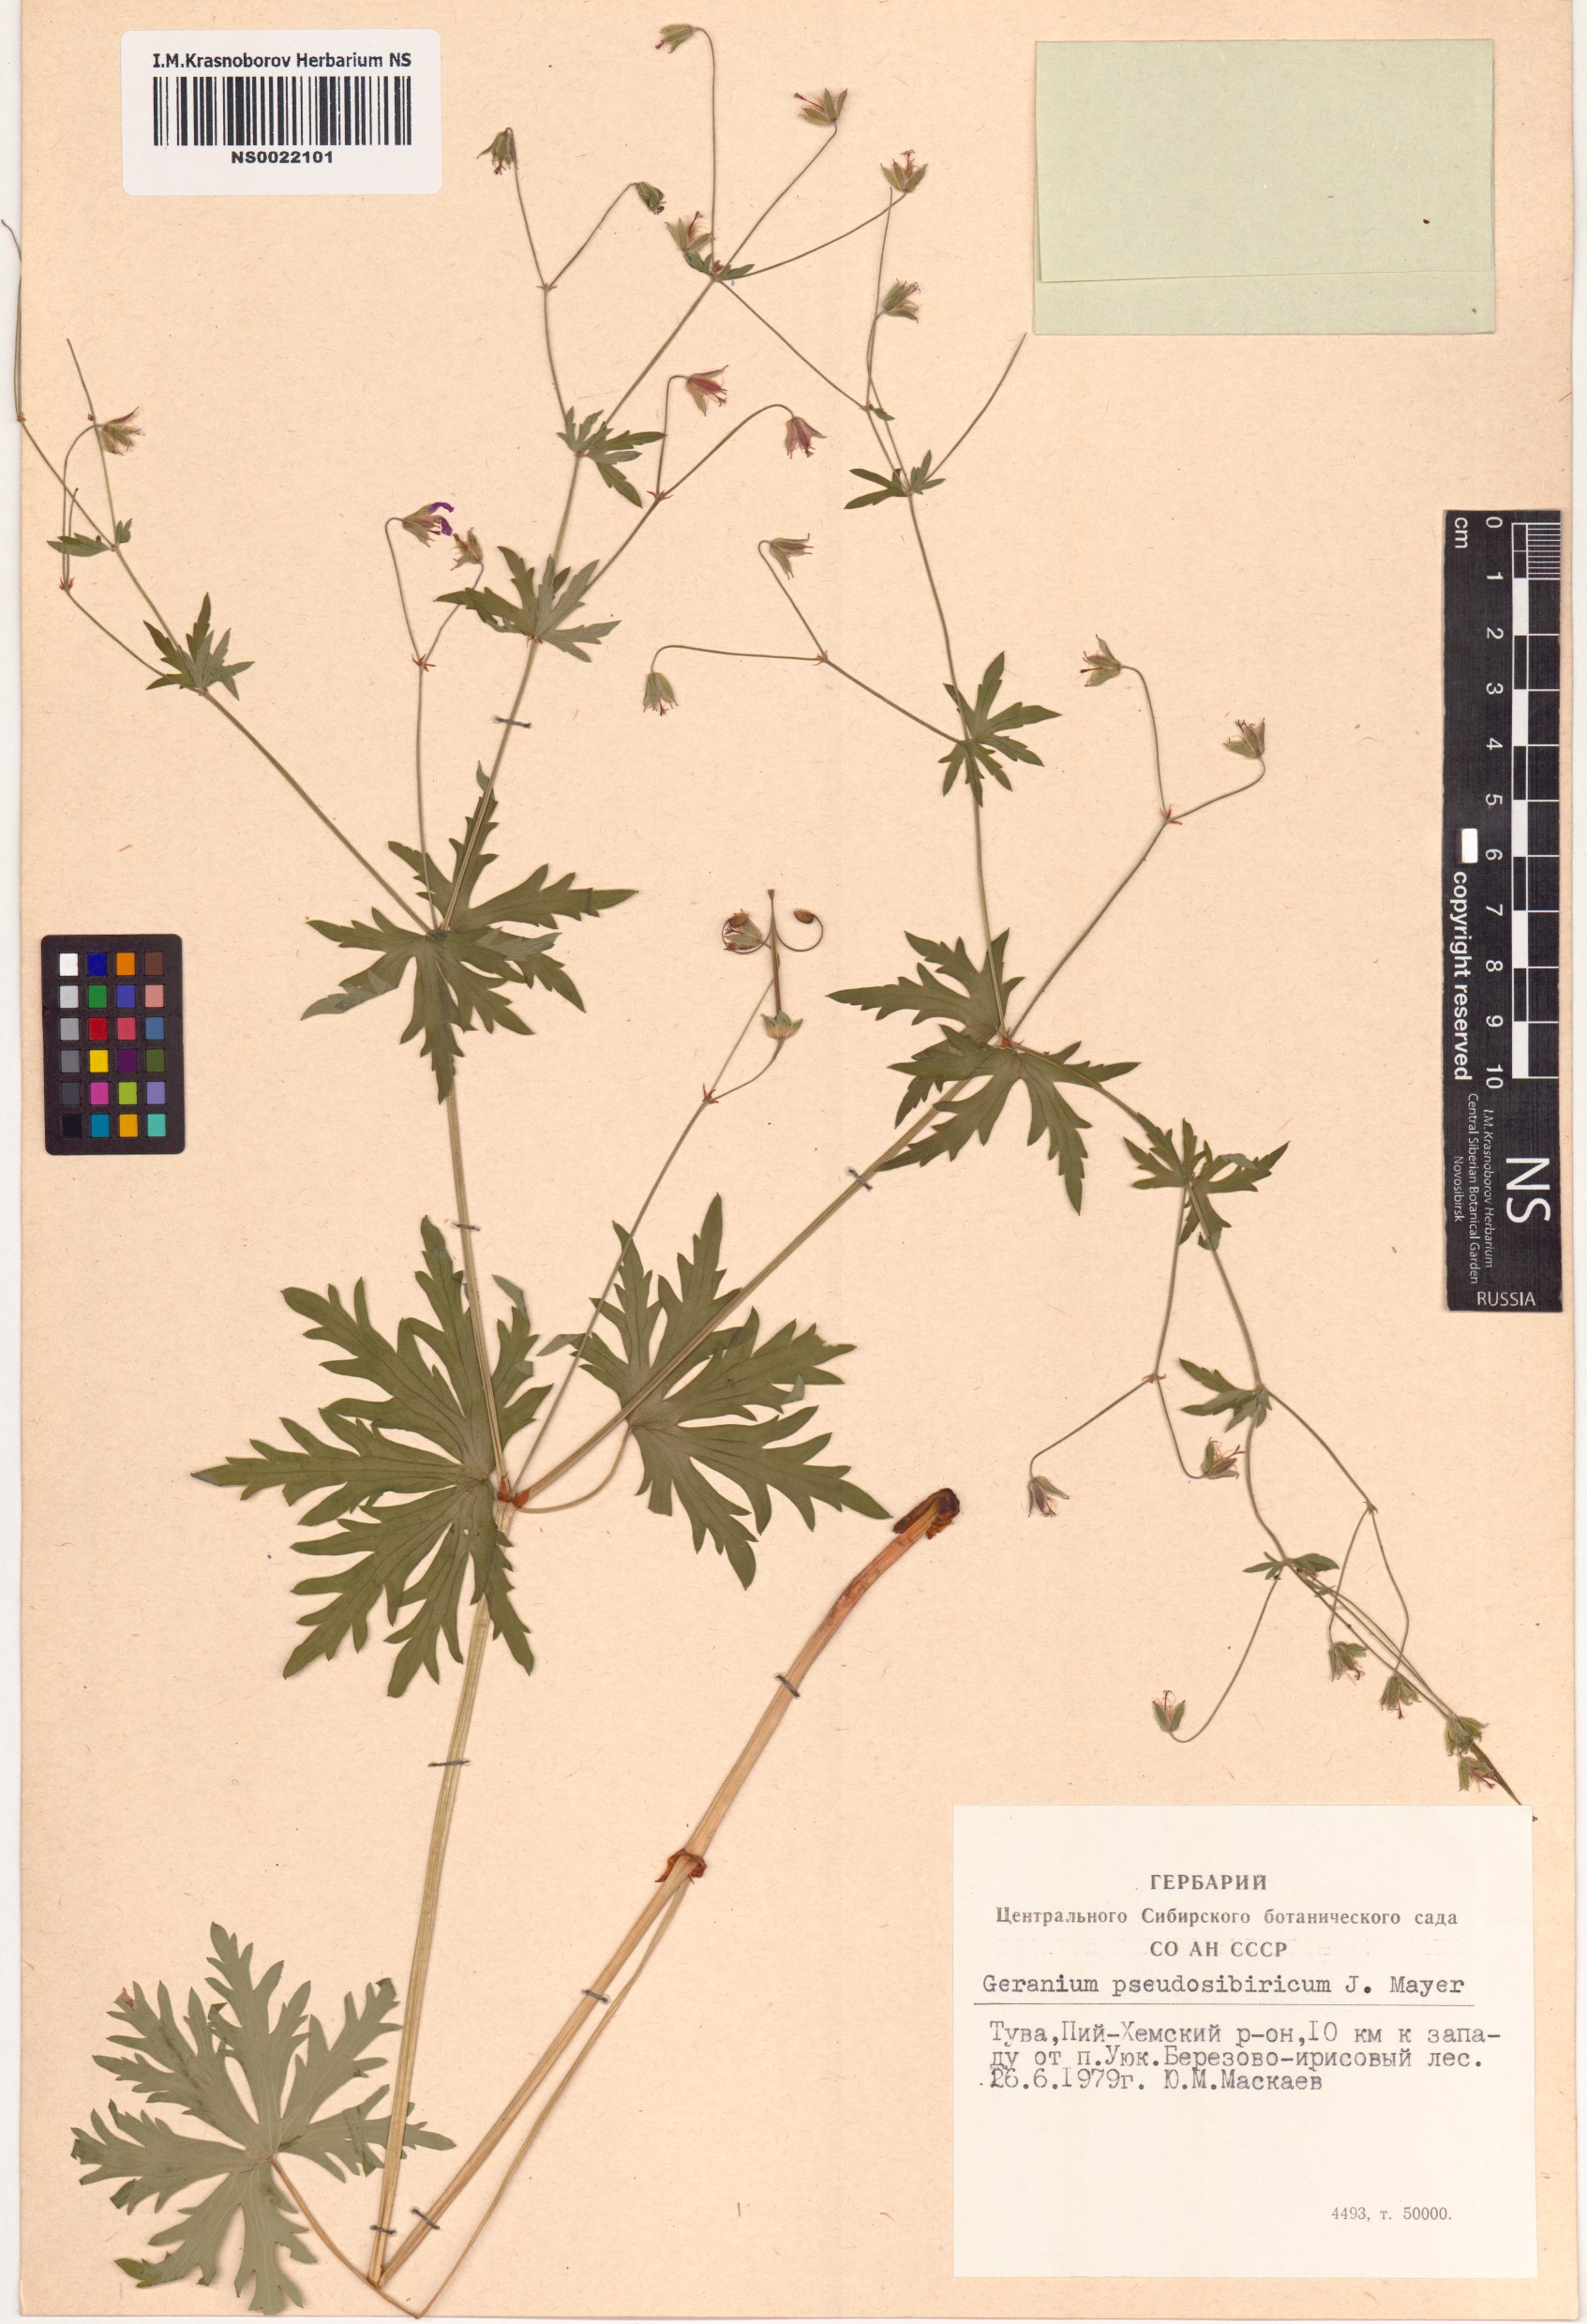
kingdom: Plantae
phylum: Tracheophyta
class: Magnoliopsida
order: Geraniales
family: Geraniaceae
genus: Geranium
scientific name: Geranium pseudosibiricum
